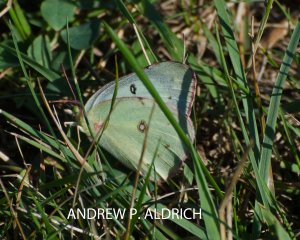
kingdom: Animalia
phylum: Arthropoda
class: Insecta
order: Lepidoptera
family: Pieridae
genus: Colias
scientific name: Colias philodice
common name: Clouded Sulphur
